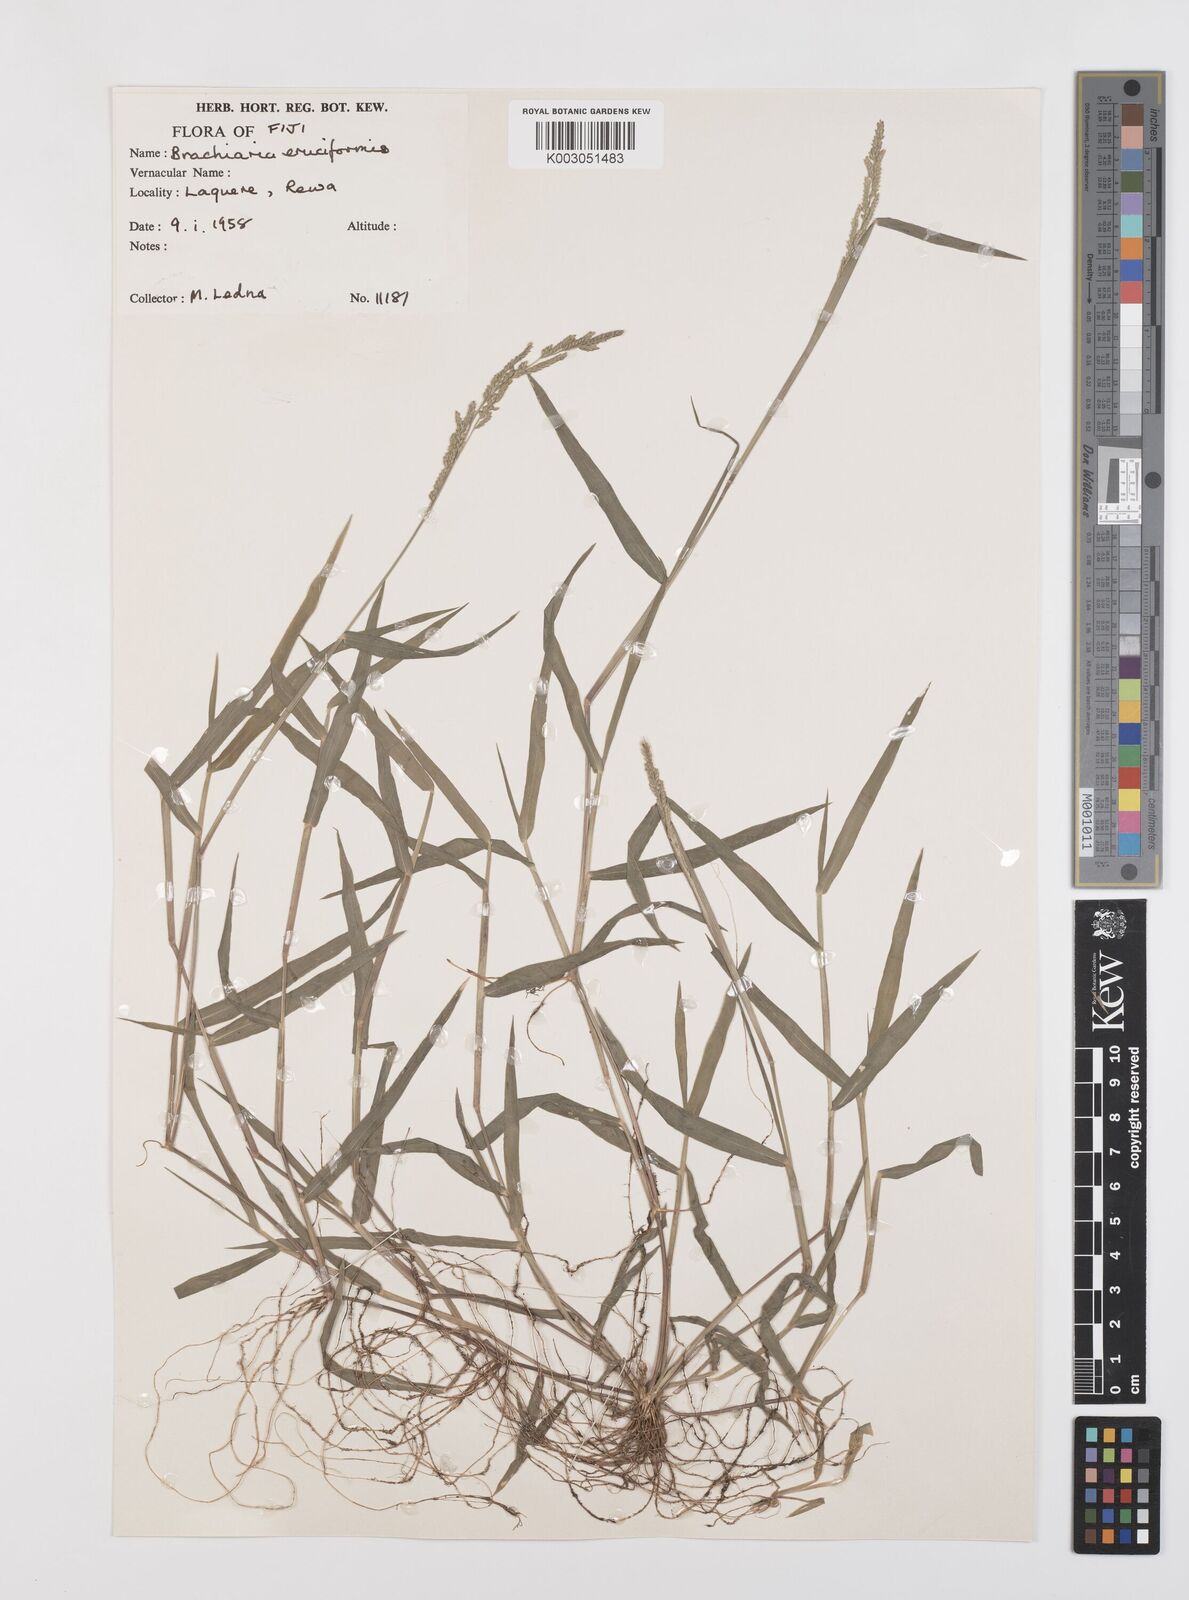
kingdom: Plantae
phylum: Tracheophyta
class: Liliopsida
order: Poales
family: Poaceae
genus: Moorochloa
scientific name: Moorochloa eruciformis
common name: Sweet signalgrass
